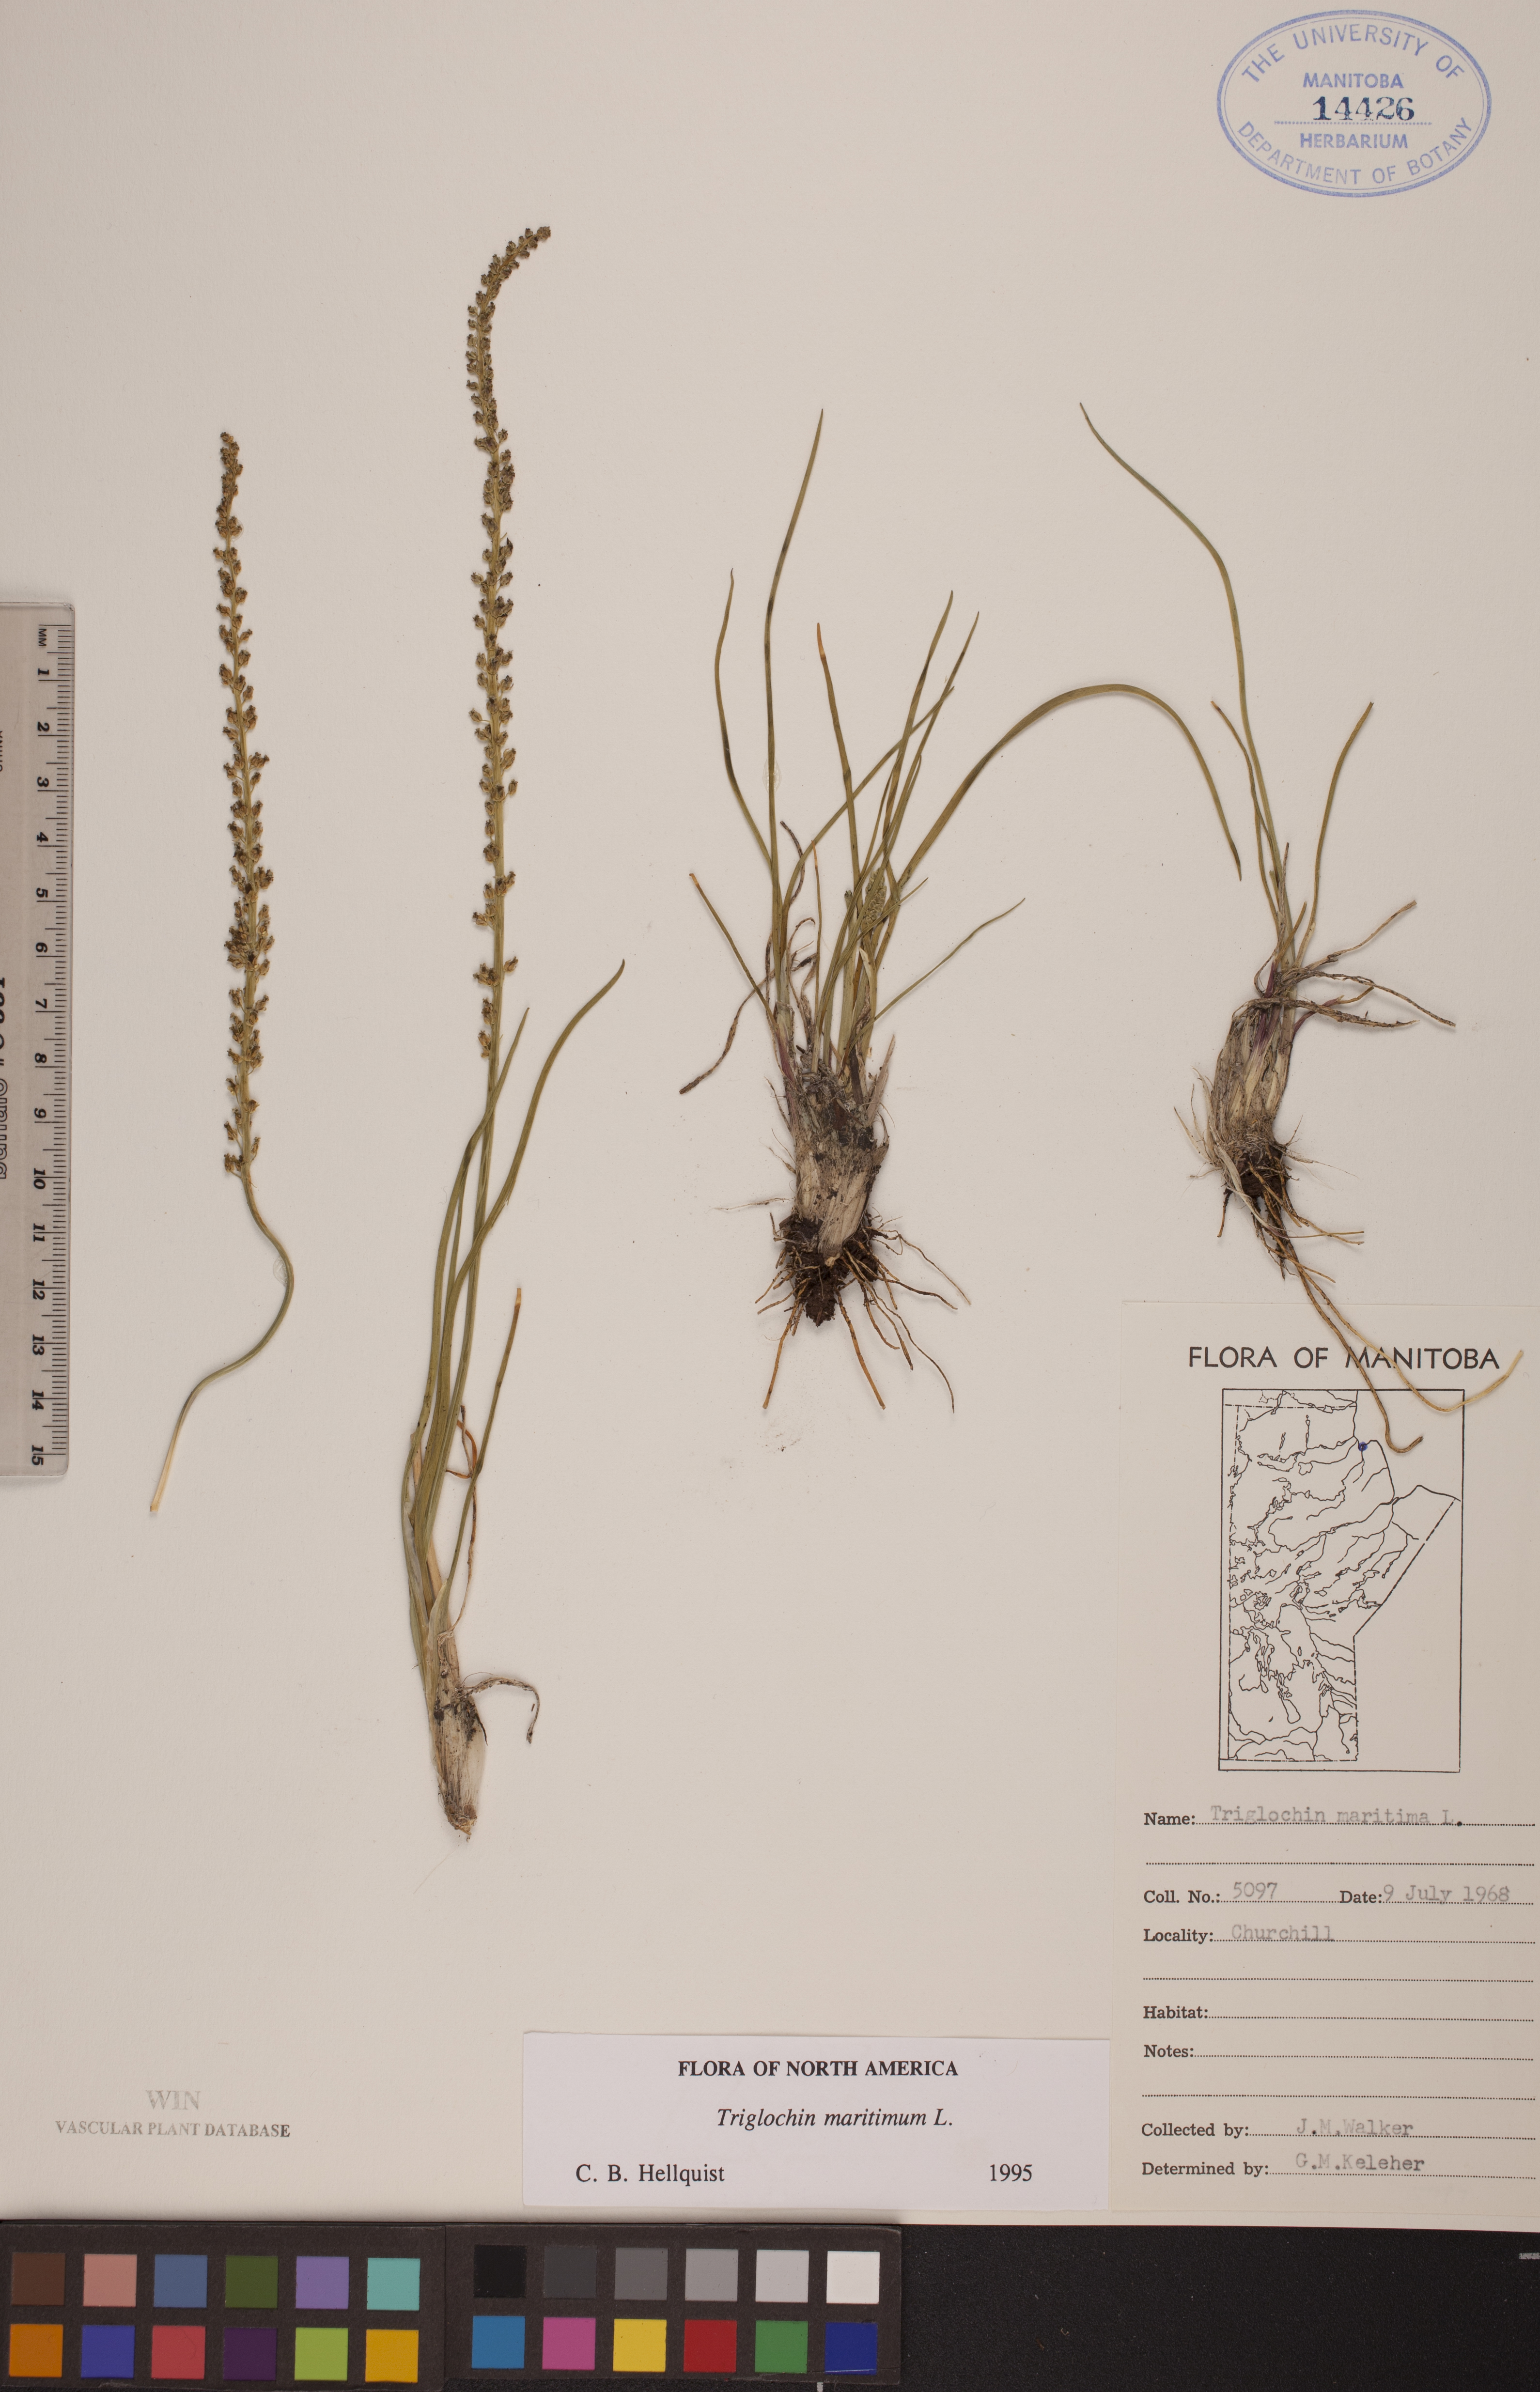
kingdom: Plantae
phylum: Tracheophyta
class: Liliopsida
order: Alismatales
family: Juncaginaceae
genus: Triglochin
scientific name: Triglochin maritima
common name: Sea arrowgrass
